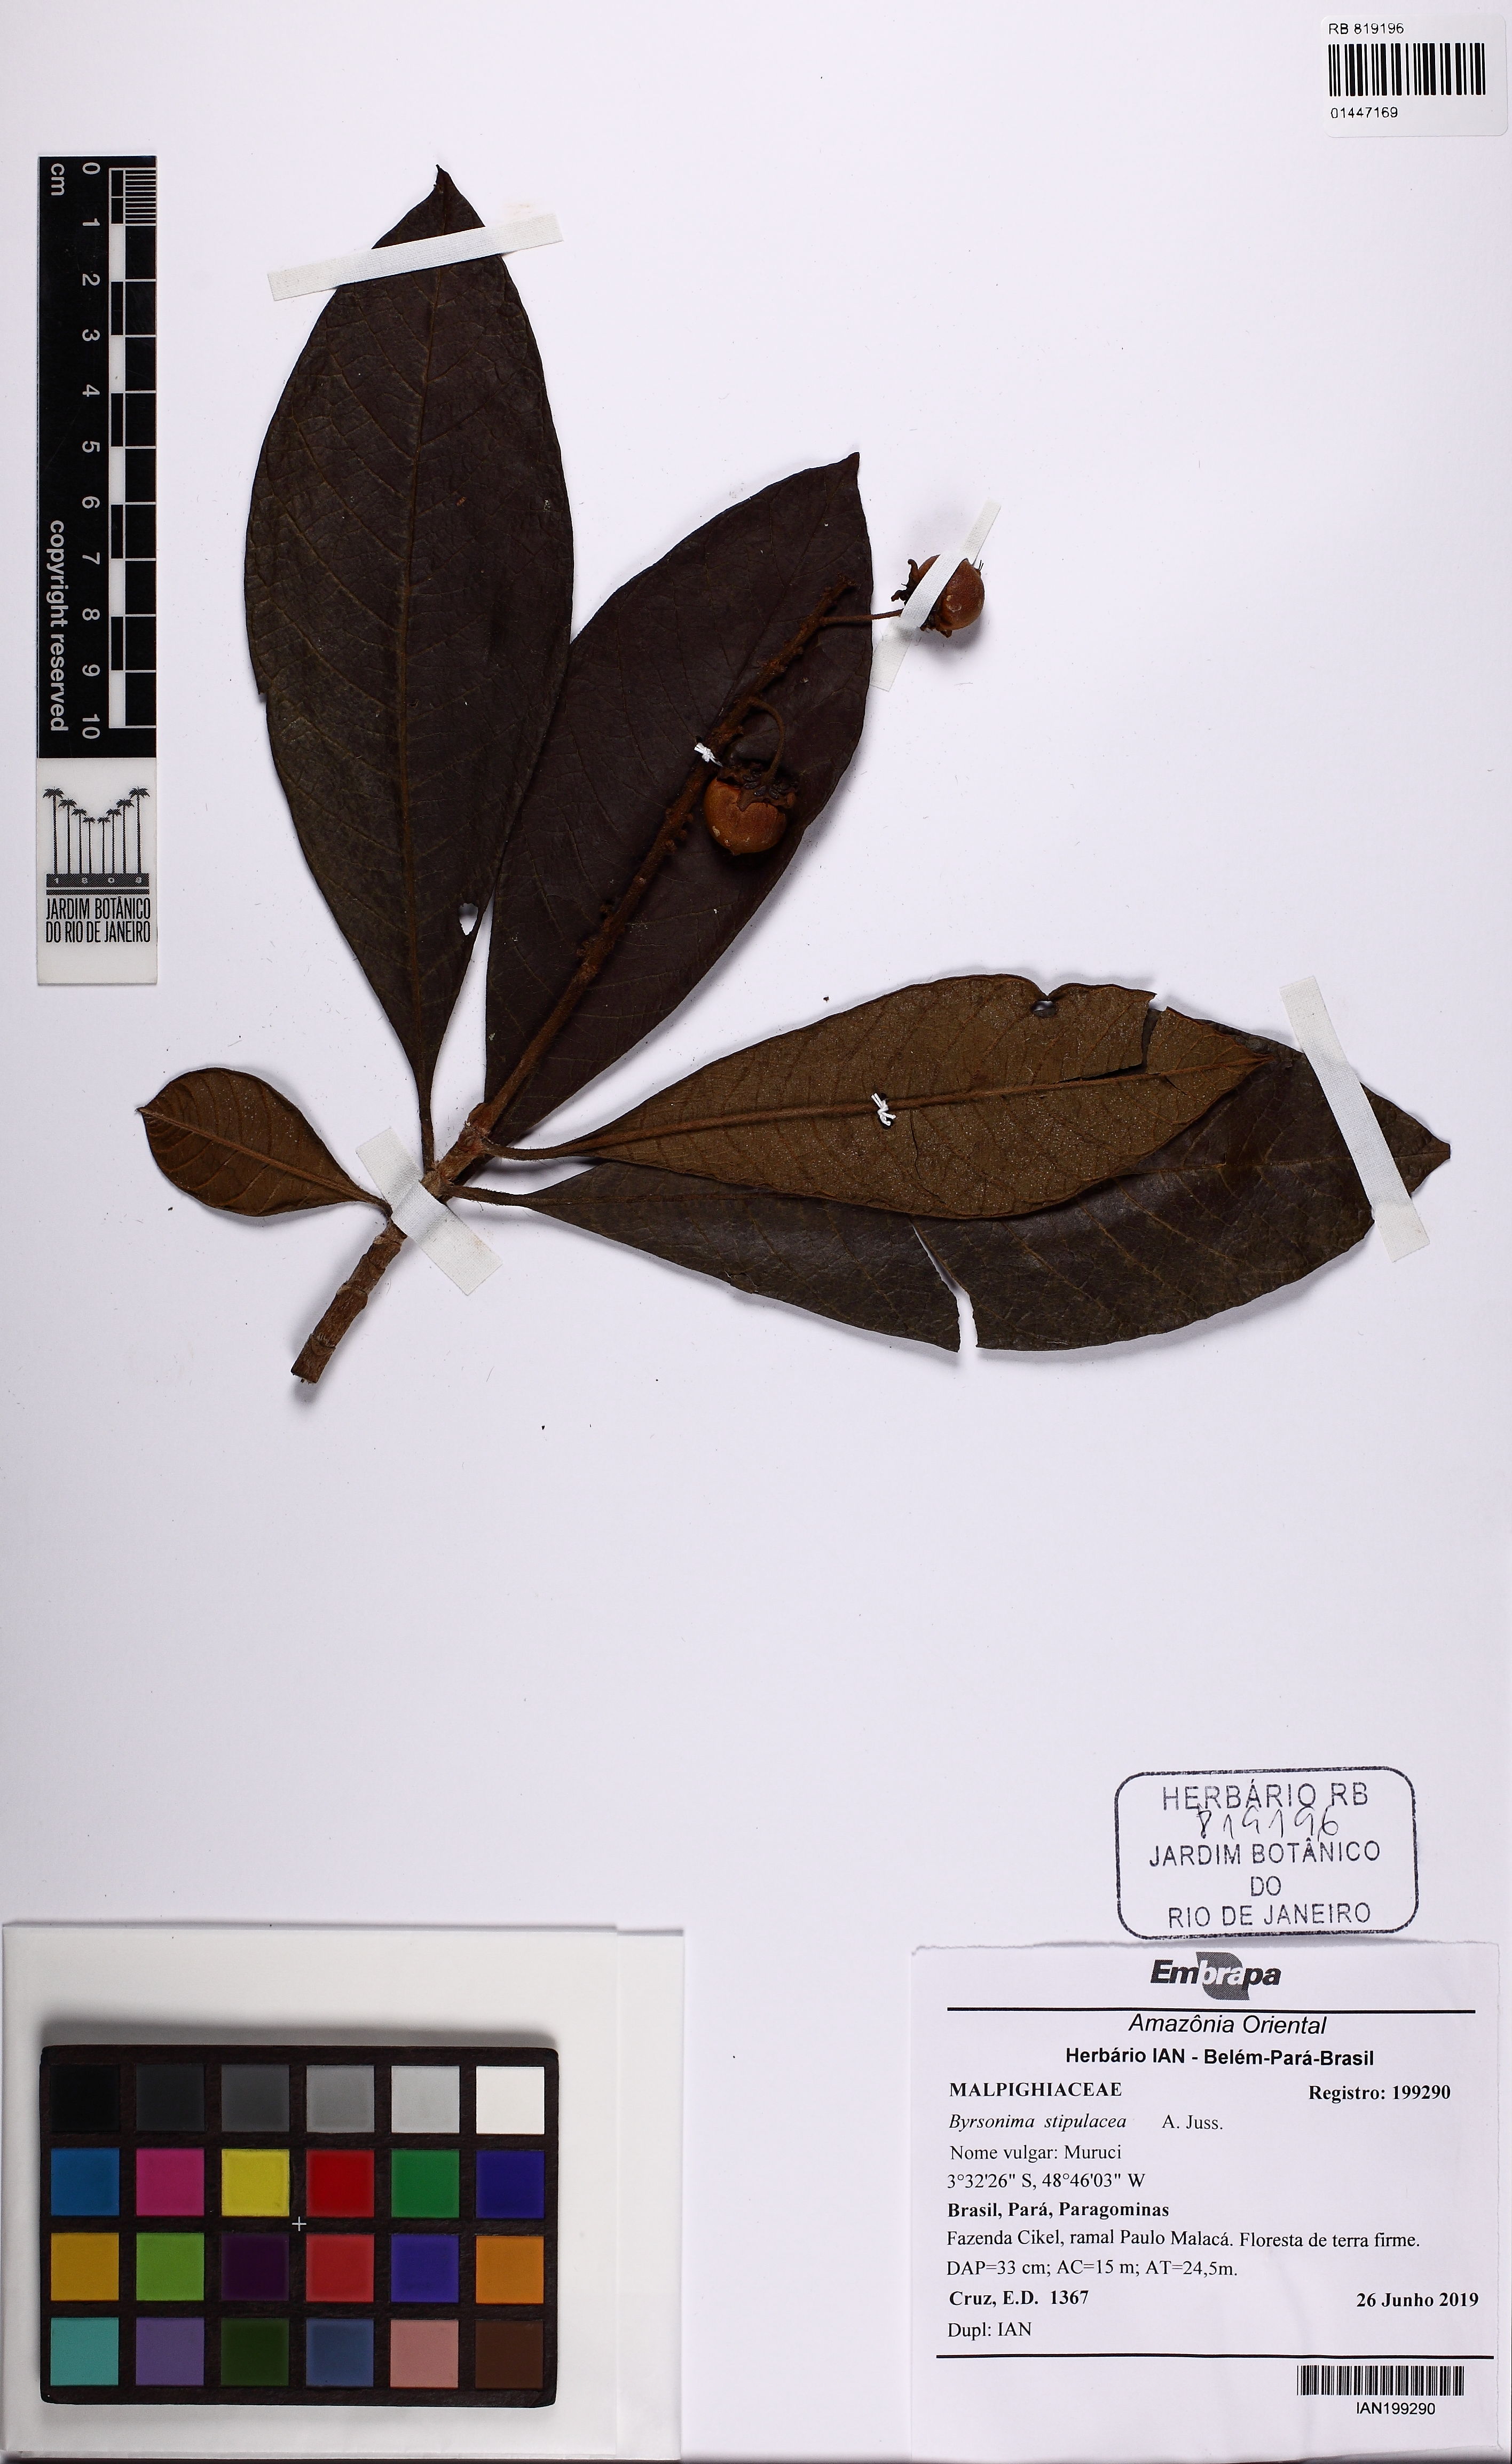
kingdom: Plantae
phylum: Tracheophyta
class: Magnoliopsida
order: Malpighiales
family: Malpighiaceae
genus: Byrsonima
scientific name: Byrsonima stipulacea
